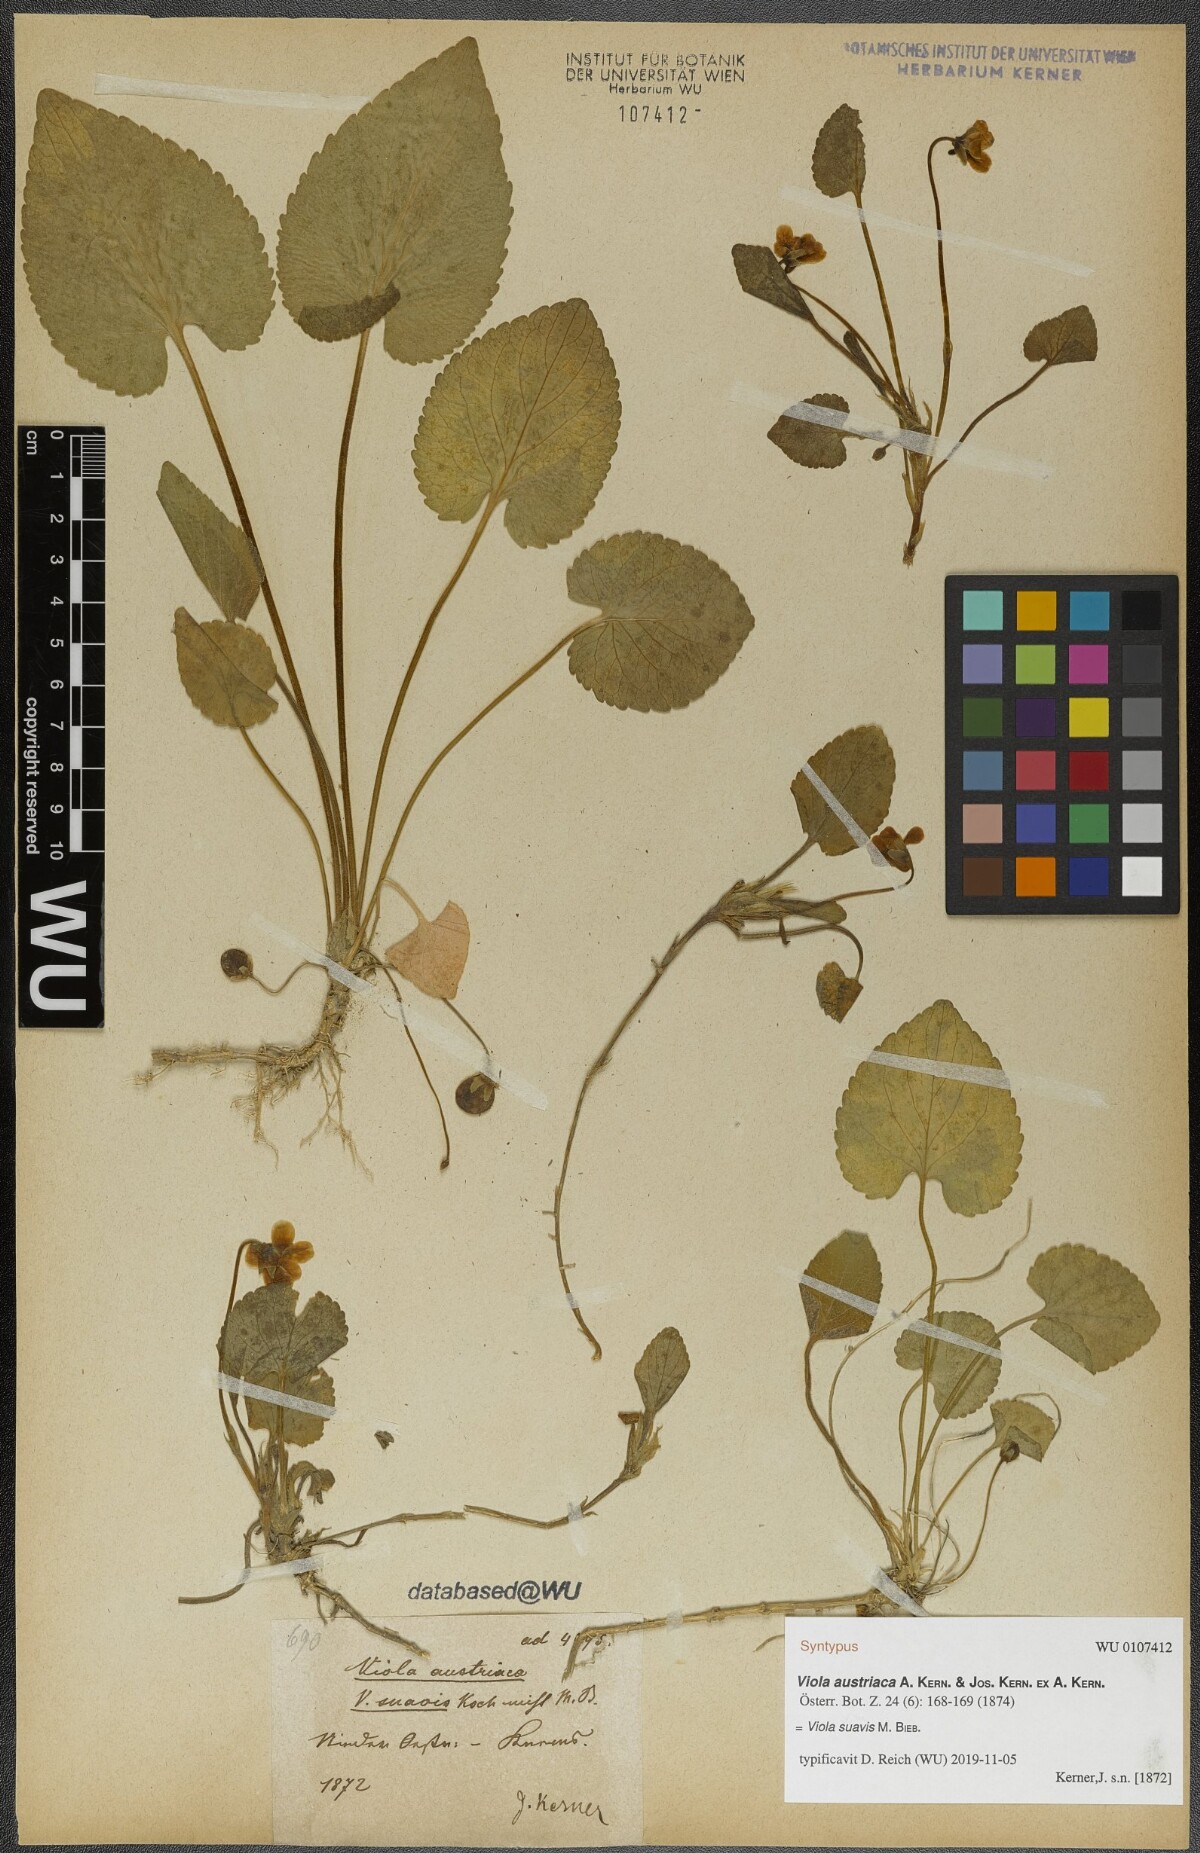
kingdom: Plantae
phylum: Tracheophyta
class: Magnoliopsida
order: Malpighiales
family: Violaceae
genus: Viola
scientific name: Viola suavis
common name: Russian violet
